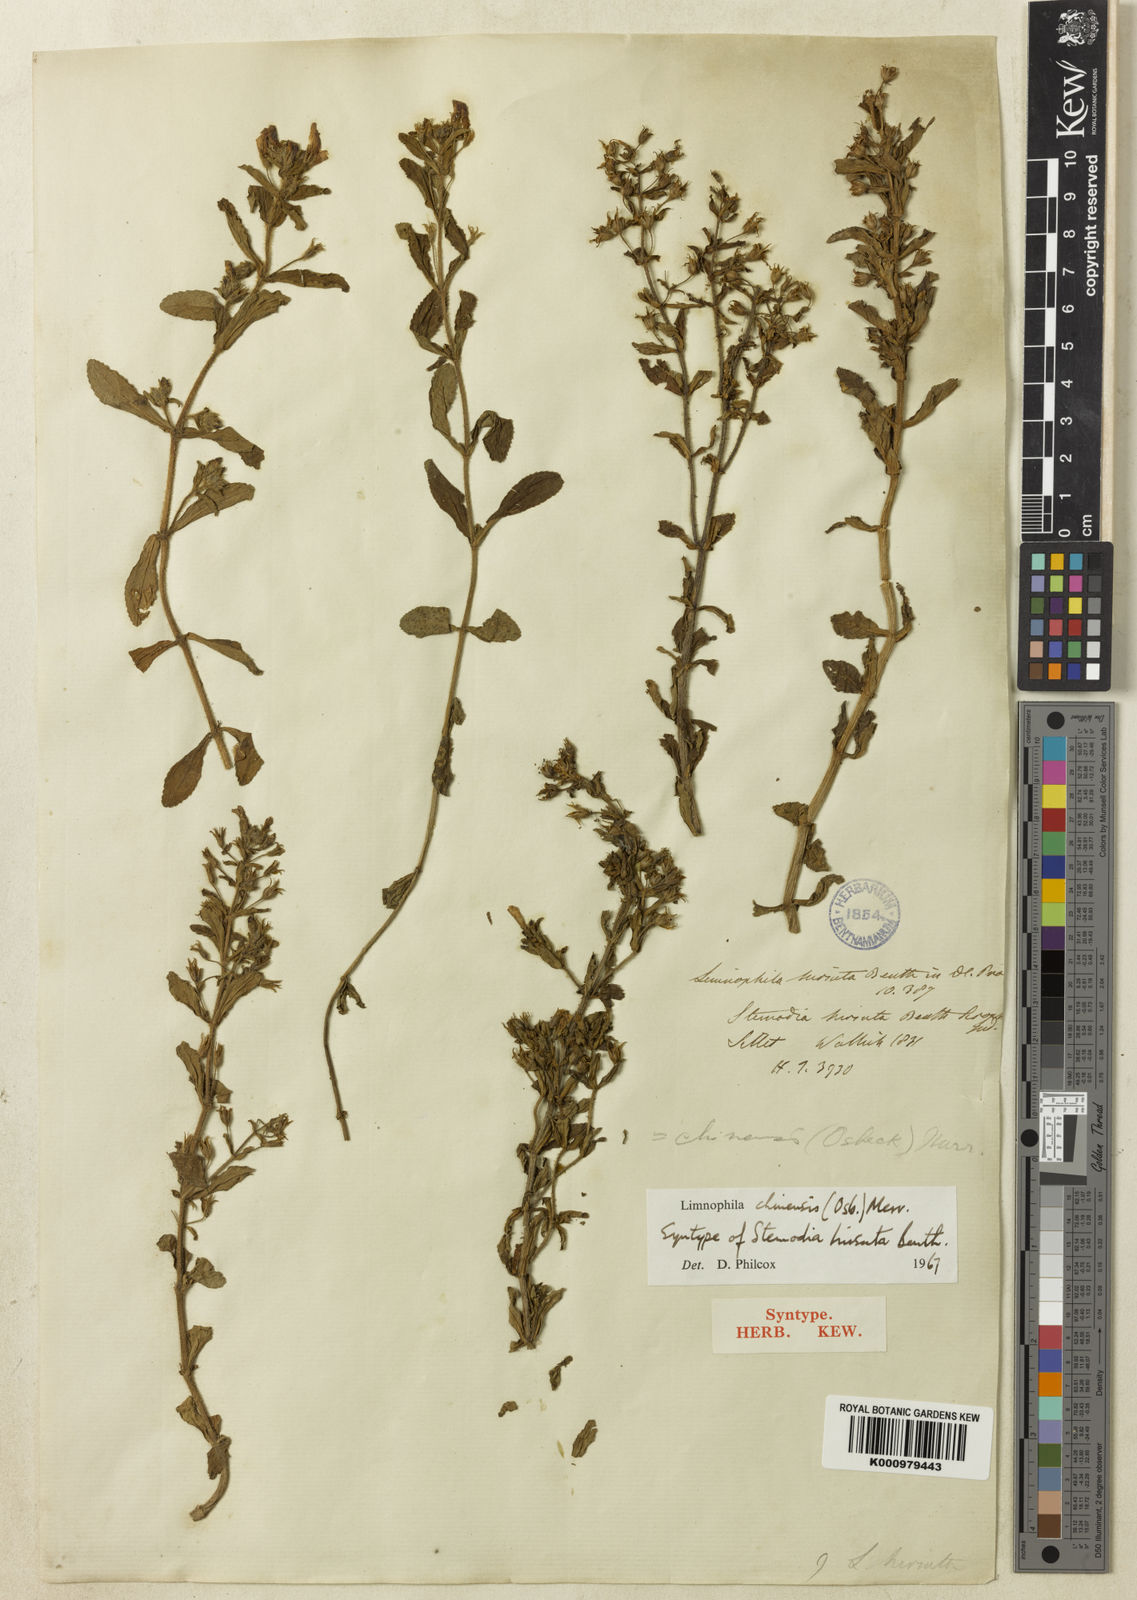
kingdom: Plantae
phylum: Tracheophyta
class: Magnoliopsida
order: Lamiales
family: Plantaginaceae
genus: Limnophila
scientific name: Limnophila chinensis
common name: Finger grass
